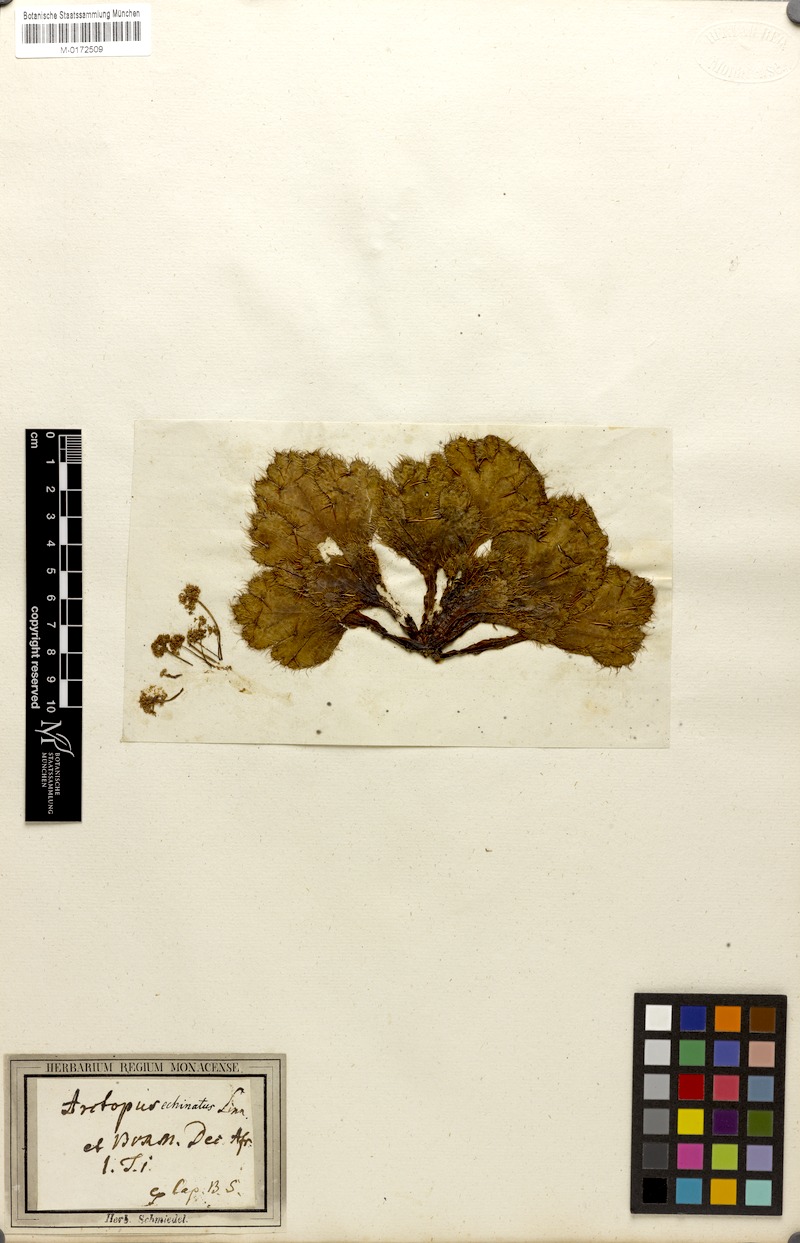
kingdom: Plantae
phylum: Tracheophyta
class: Magnoliopsida
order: Apiales
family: Apiaceae
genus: Echinophora
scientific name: Echinophora orientalis
